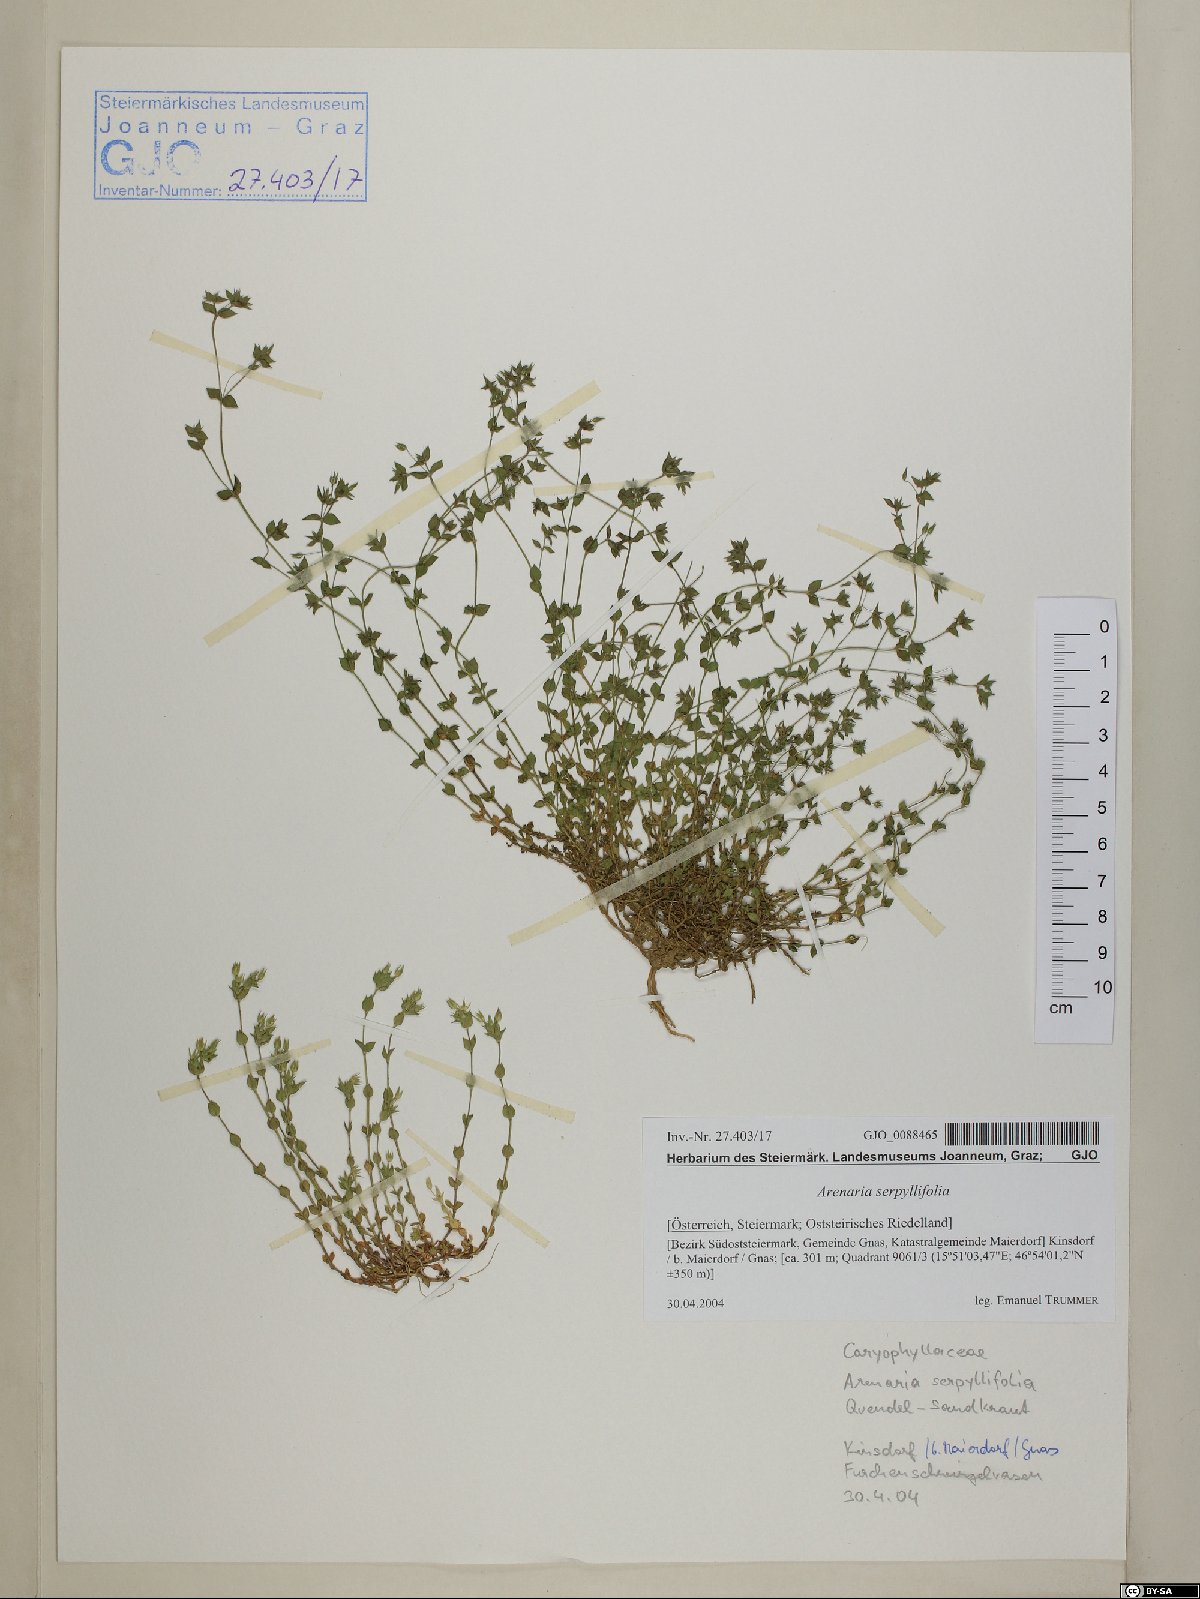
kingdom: Plantae
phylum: Tracheophyta
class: Magnoliopsida
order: Caryophyllales
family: Caryophyllaceae
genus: Arenaria
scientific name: Arenaria serpyllifolia
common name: Thyme-leaved sandwort
